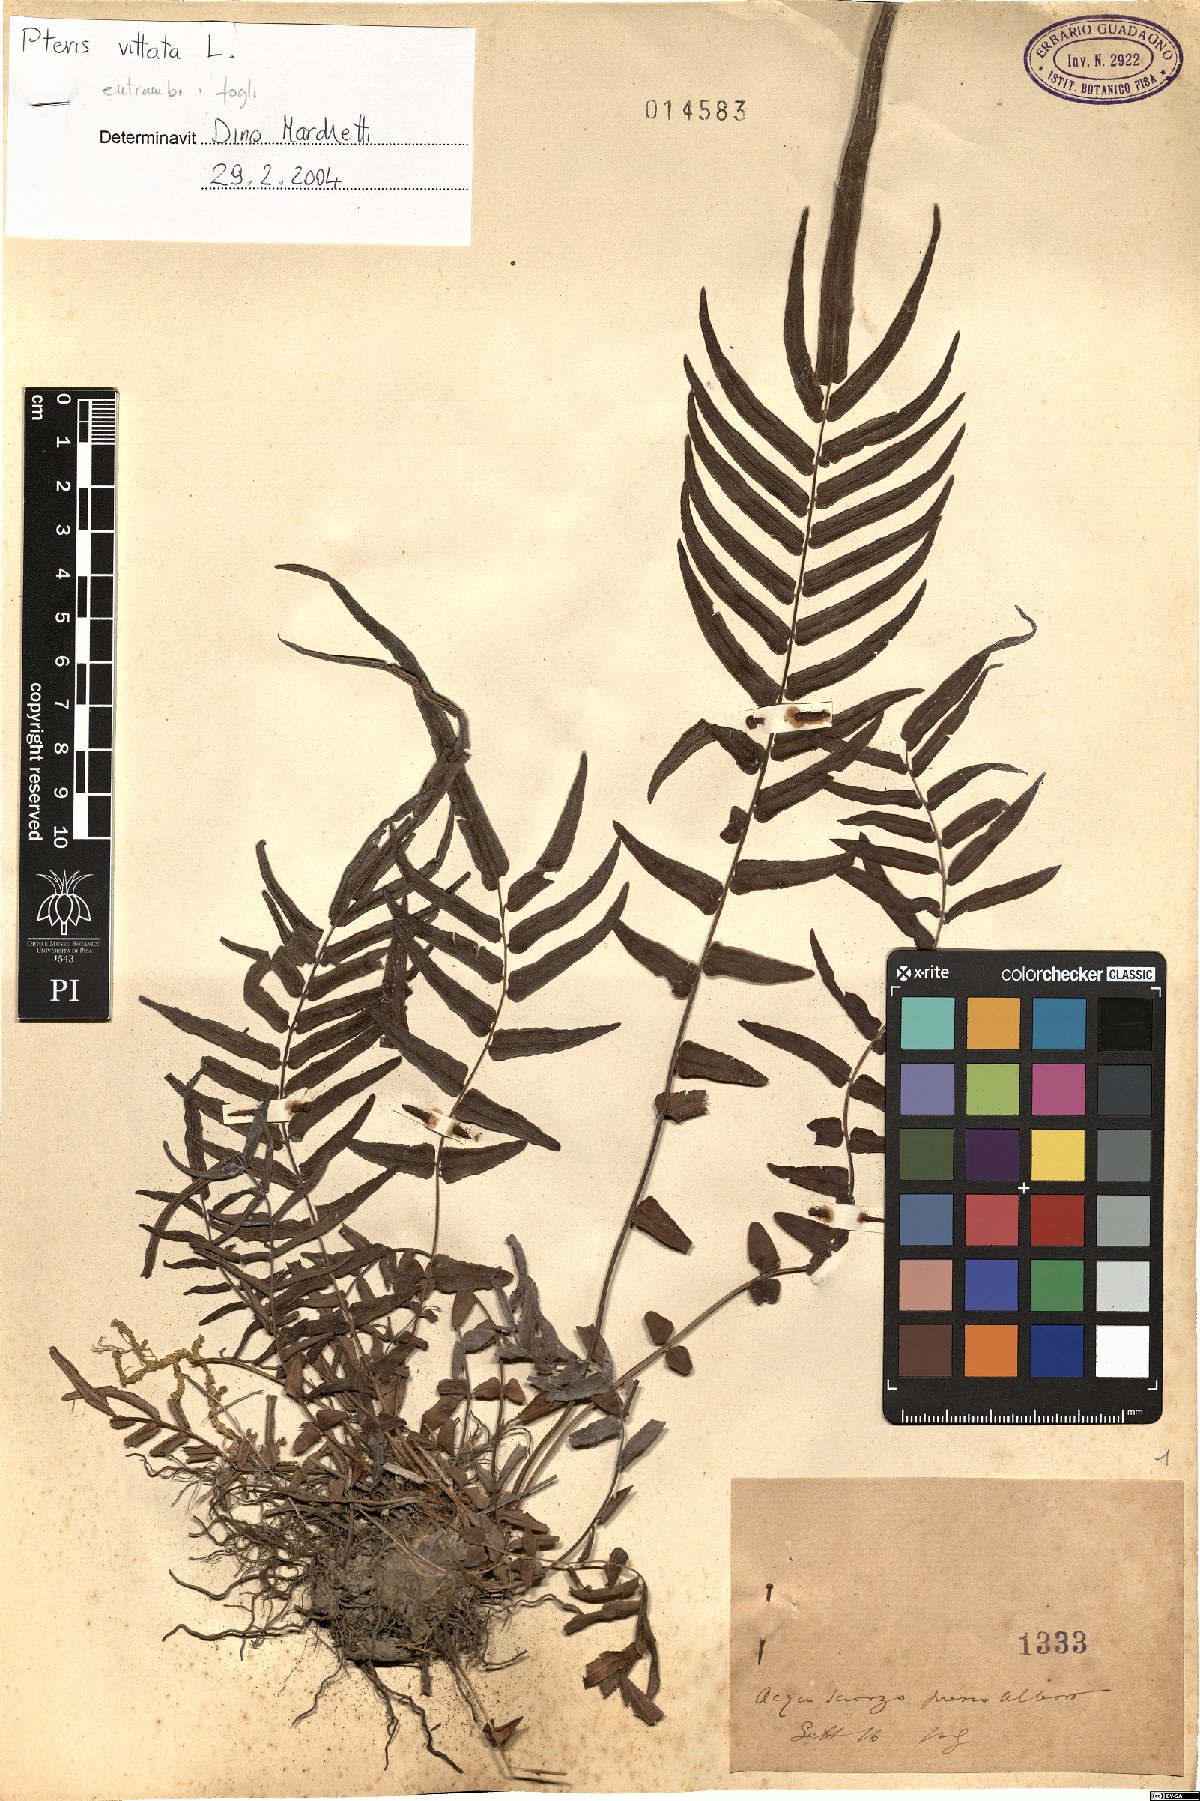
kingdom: Plantae
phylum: Tracheophyta
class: Polypodiopsida
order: Polypodiales
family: Pteridaceae
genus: Pteris
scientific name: Pteris vittata
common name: Ladder brake
